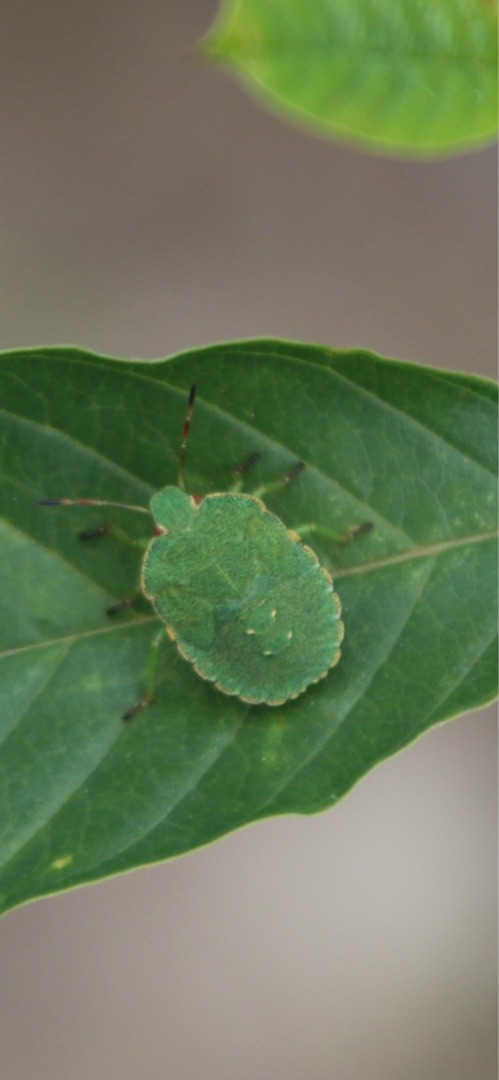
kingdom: Animalia
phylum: Arthropoda
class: Insecta
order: Hemiptera
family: Pentatomidae
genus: Palomena
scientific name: Palomena prasina
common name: Grøn bredtæge
